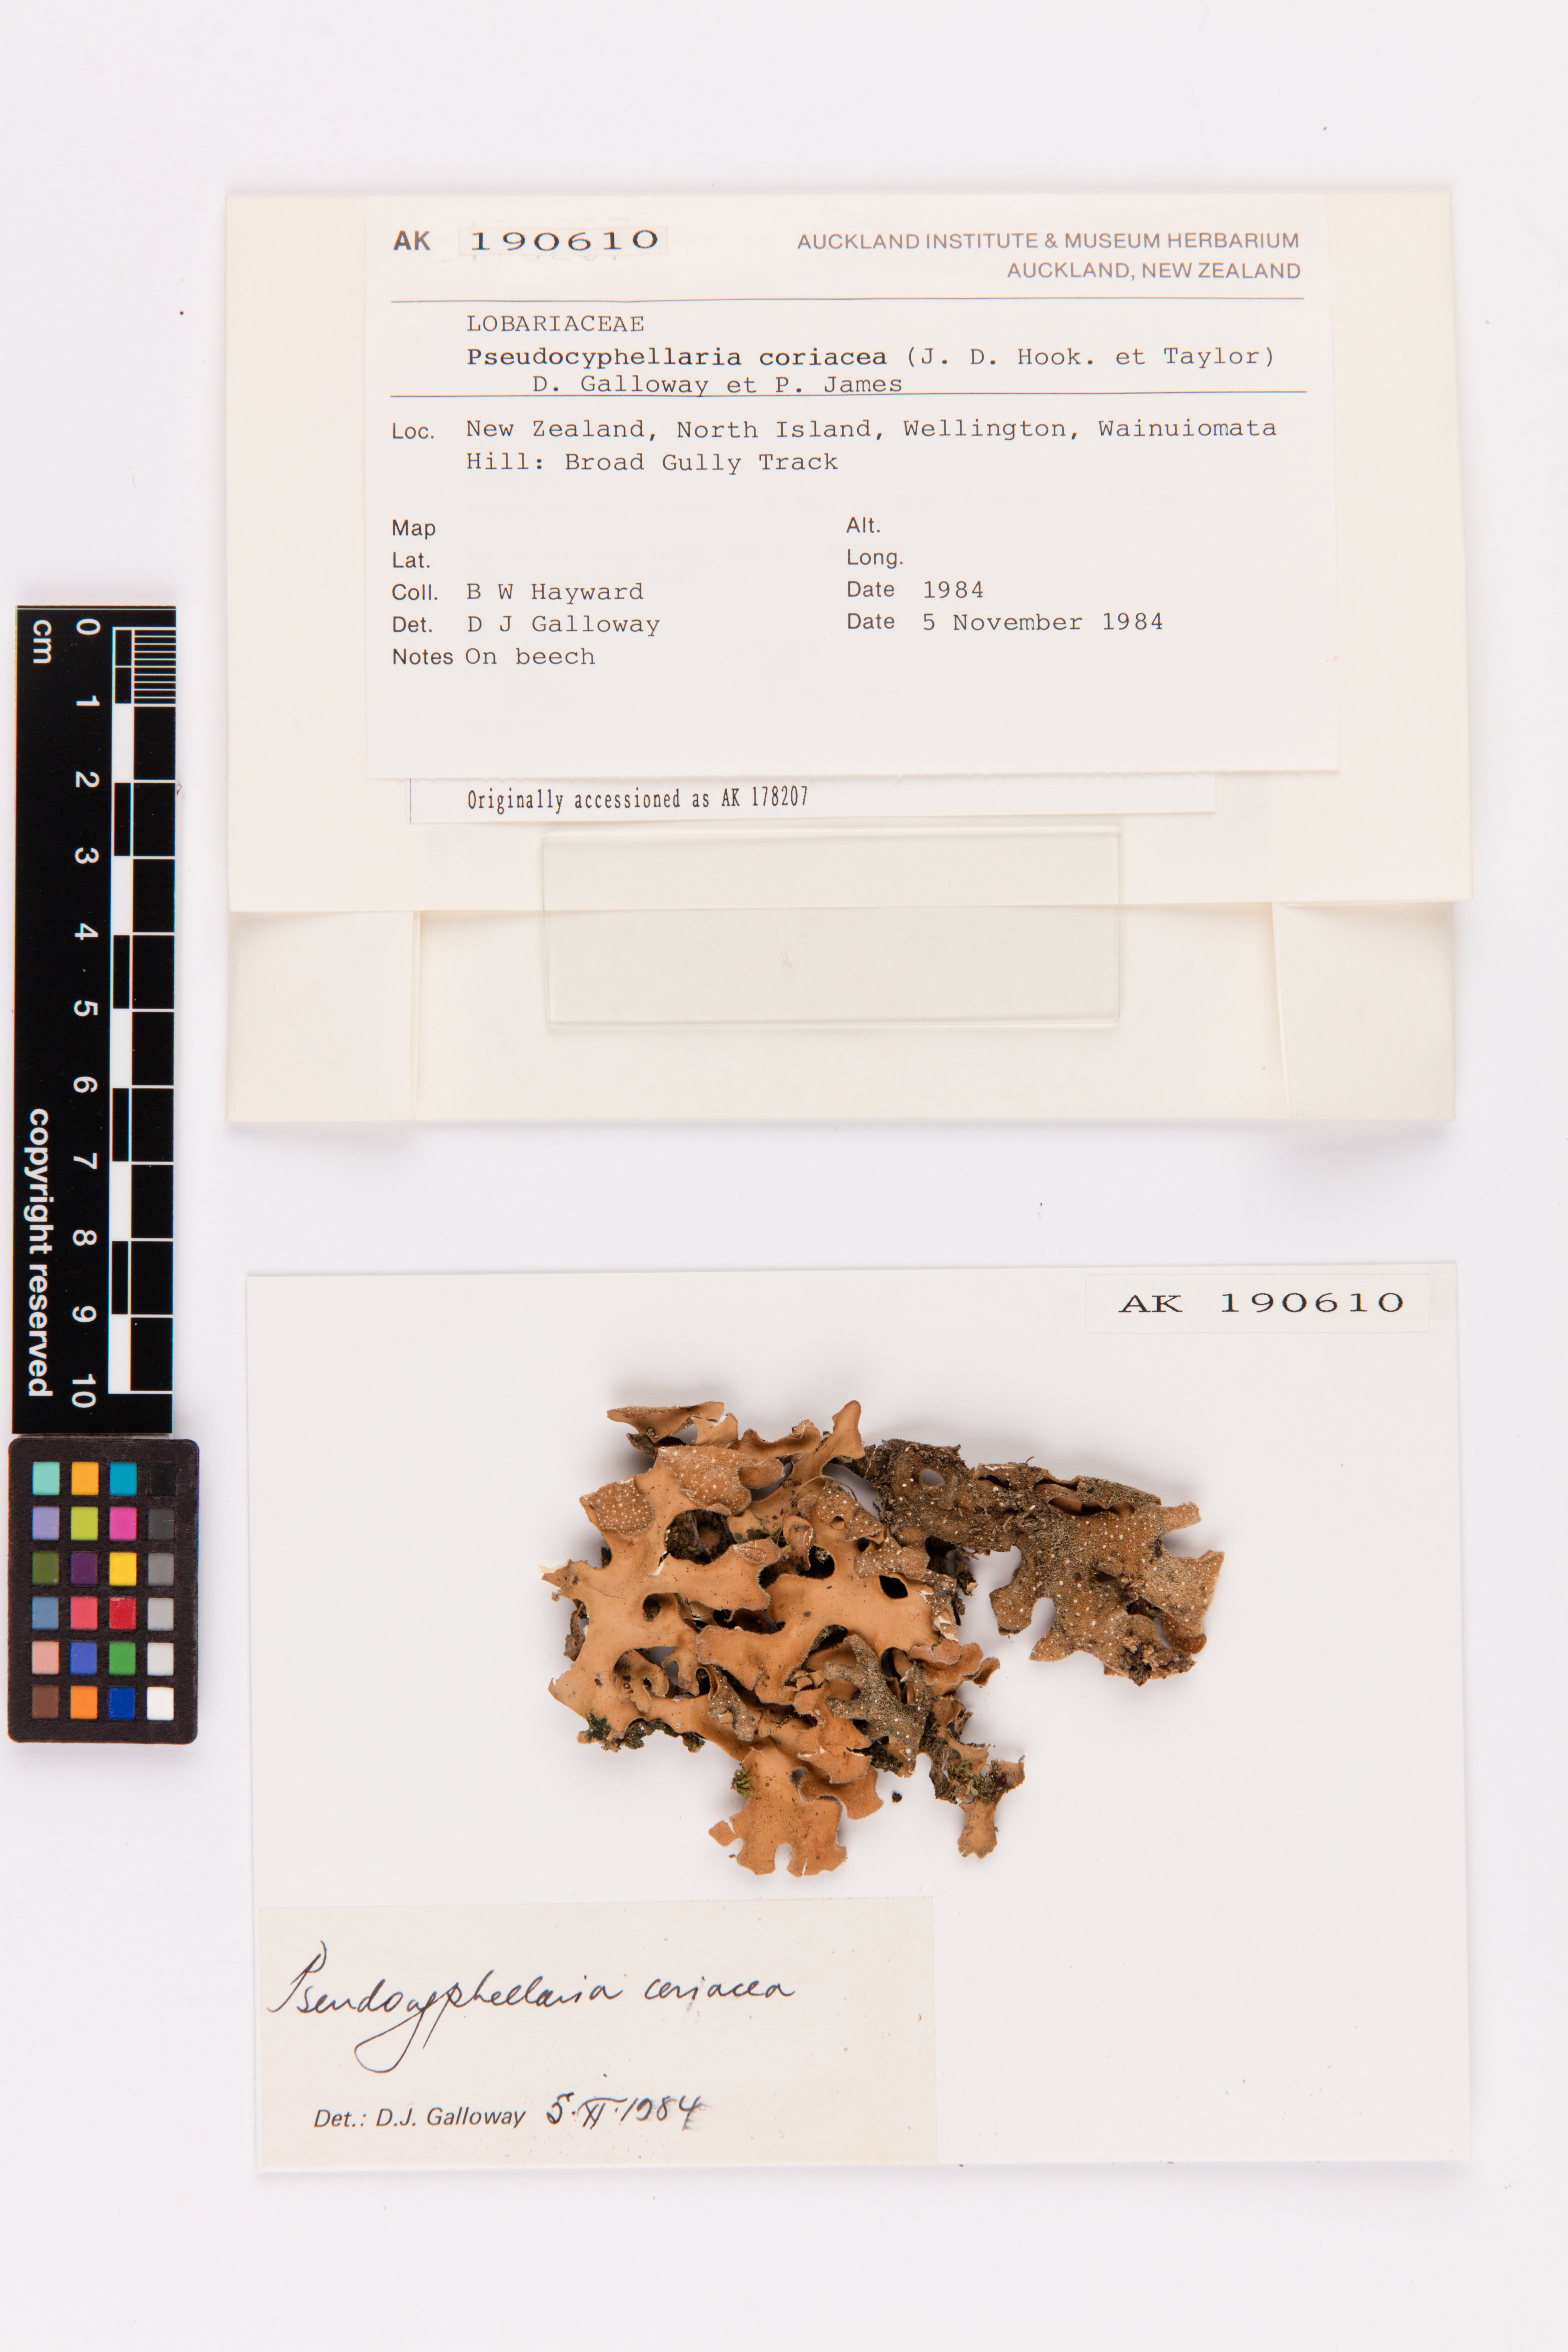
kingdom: Fungi
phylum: Ascomycota
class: Lecanoromycetes
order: Peltigerales
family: Lobariaceae
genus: Pseudocyphellaria
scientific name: Pseudocyphellaria coriacea
